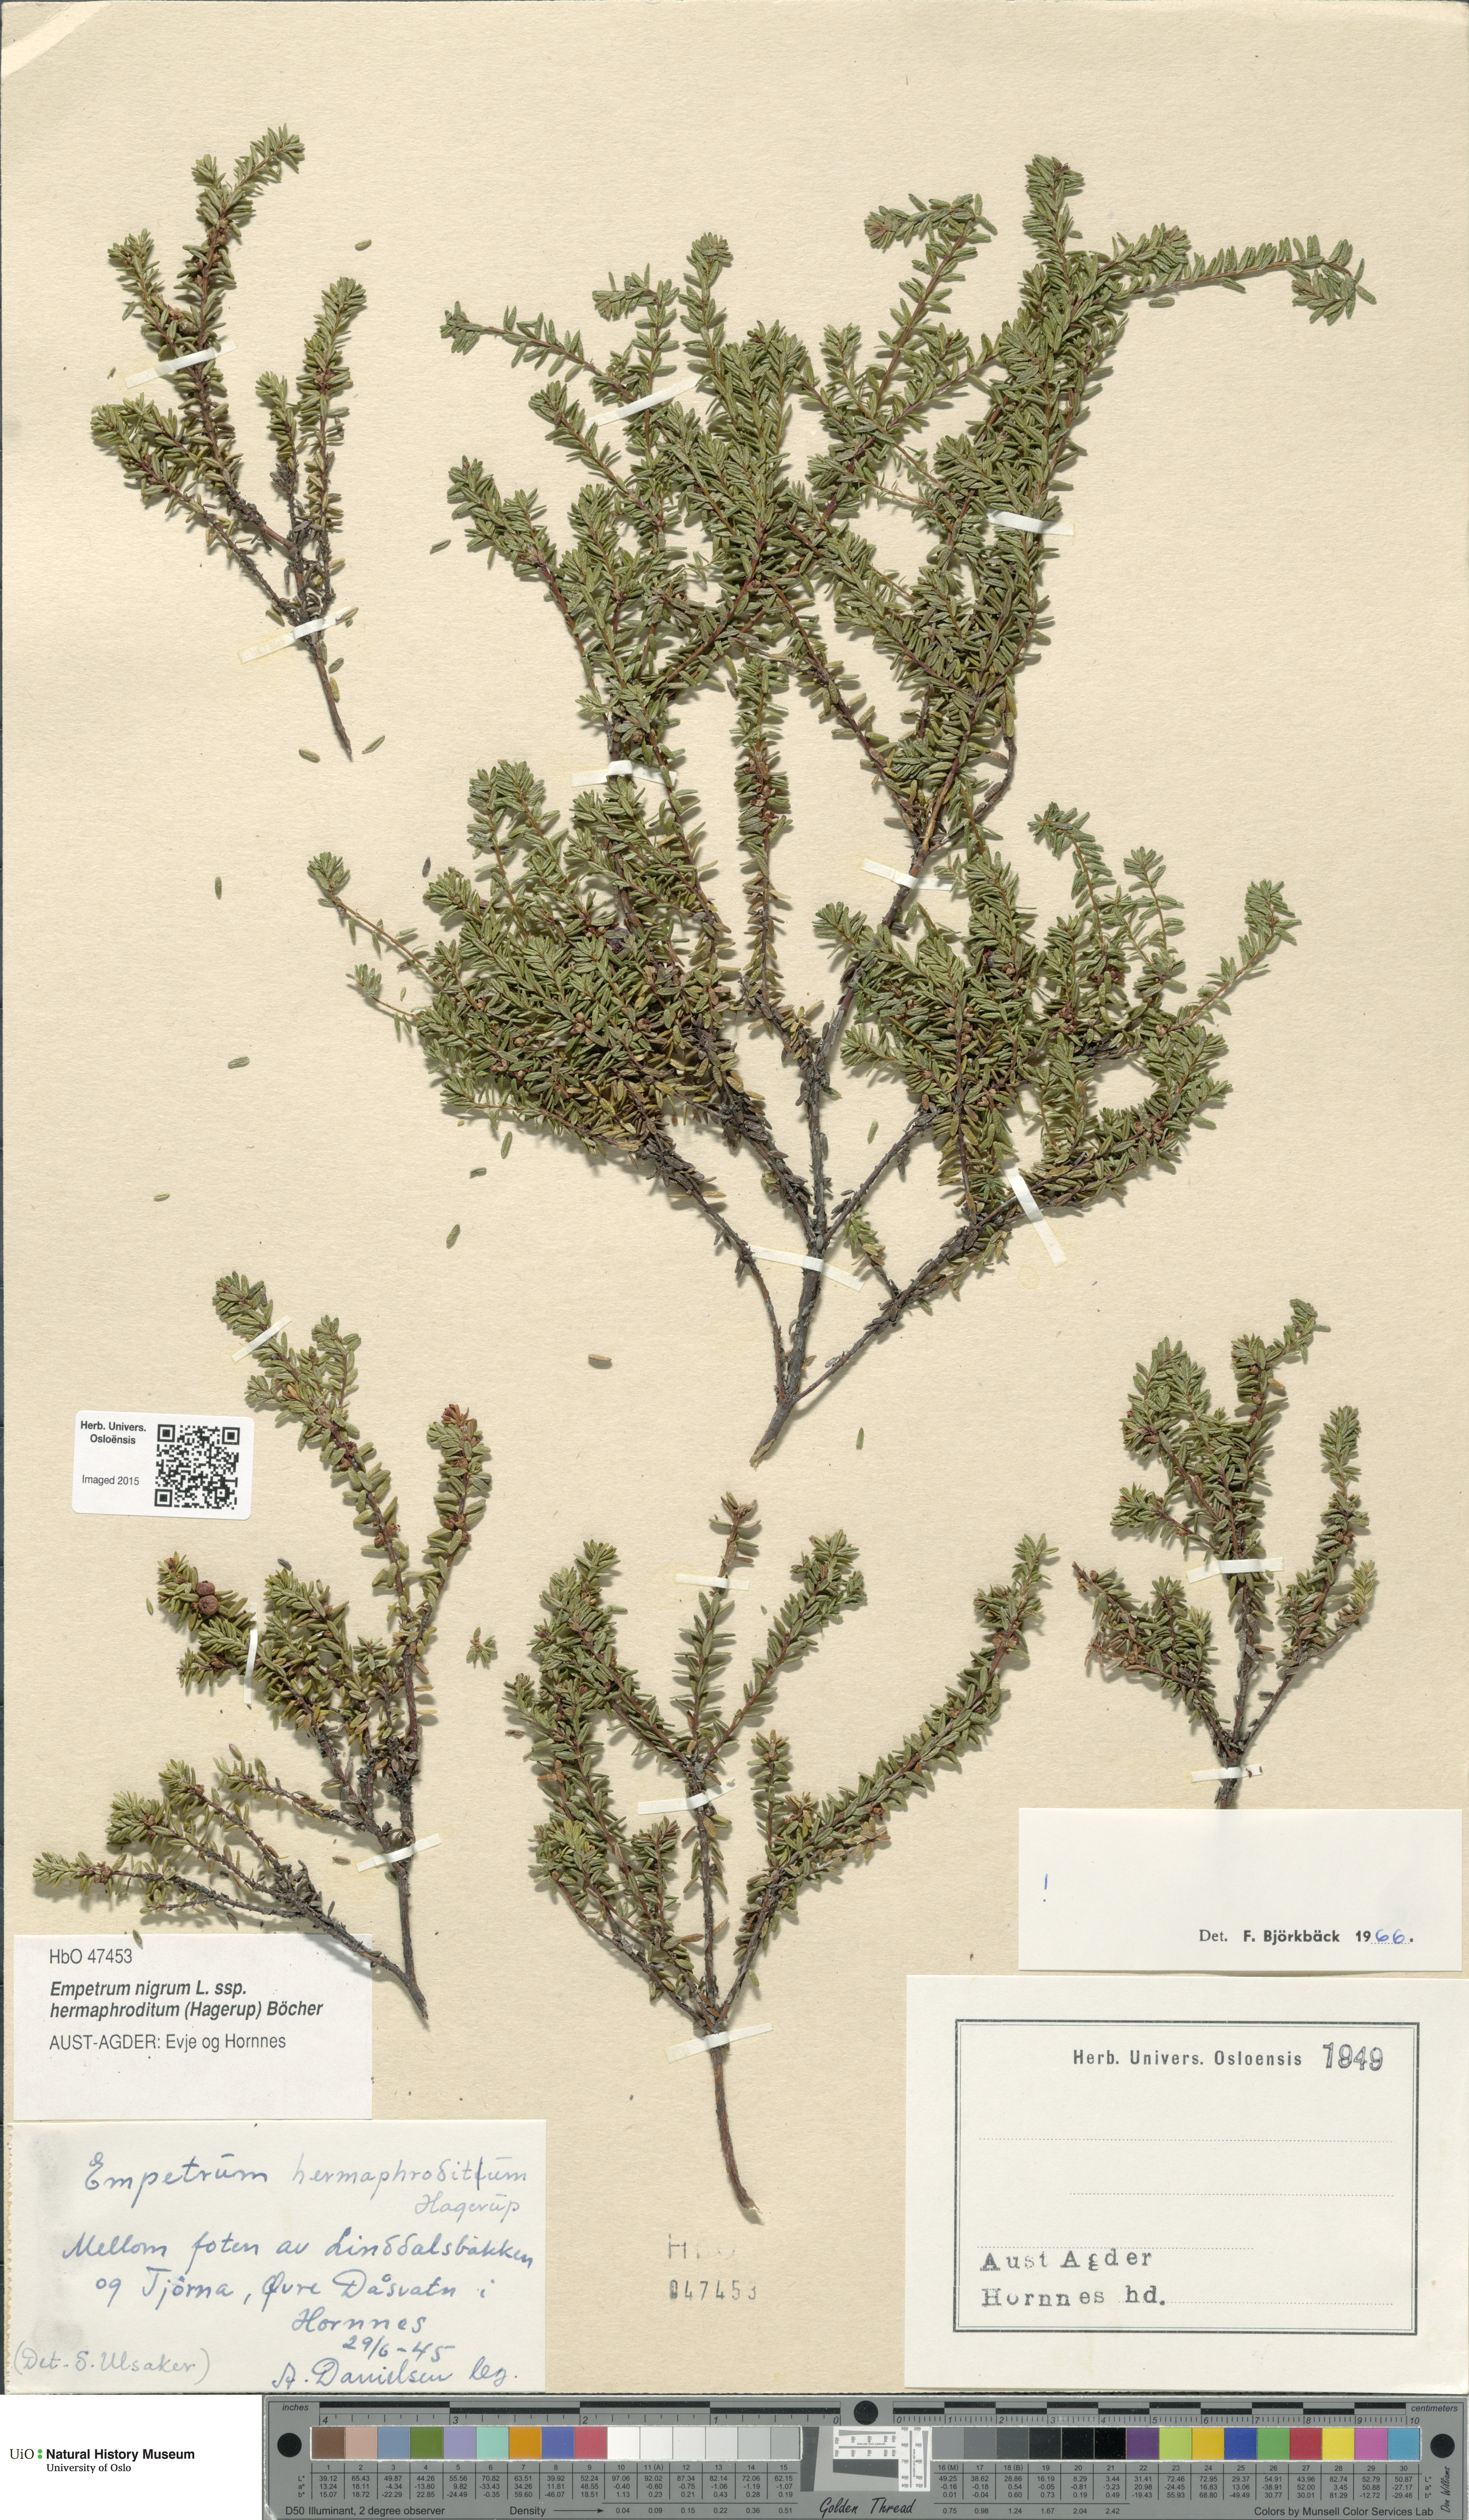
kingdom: Plantae
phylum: Tracheophyta
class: Magnoliopsida
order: Ericales
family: Ericaceae
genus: Empetrum
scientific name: Empetrum hermaphroditum
